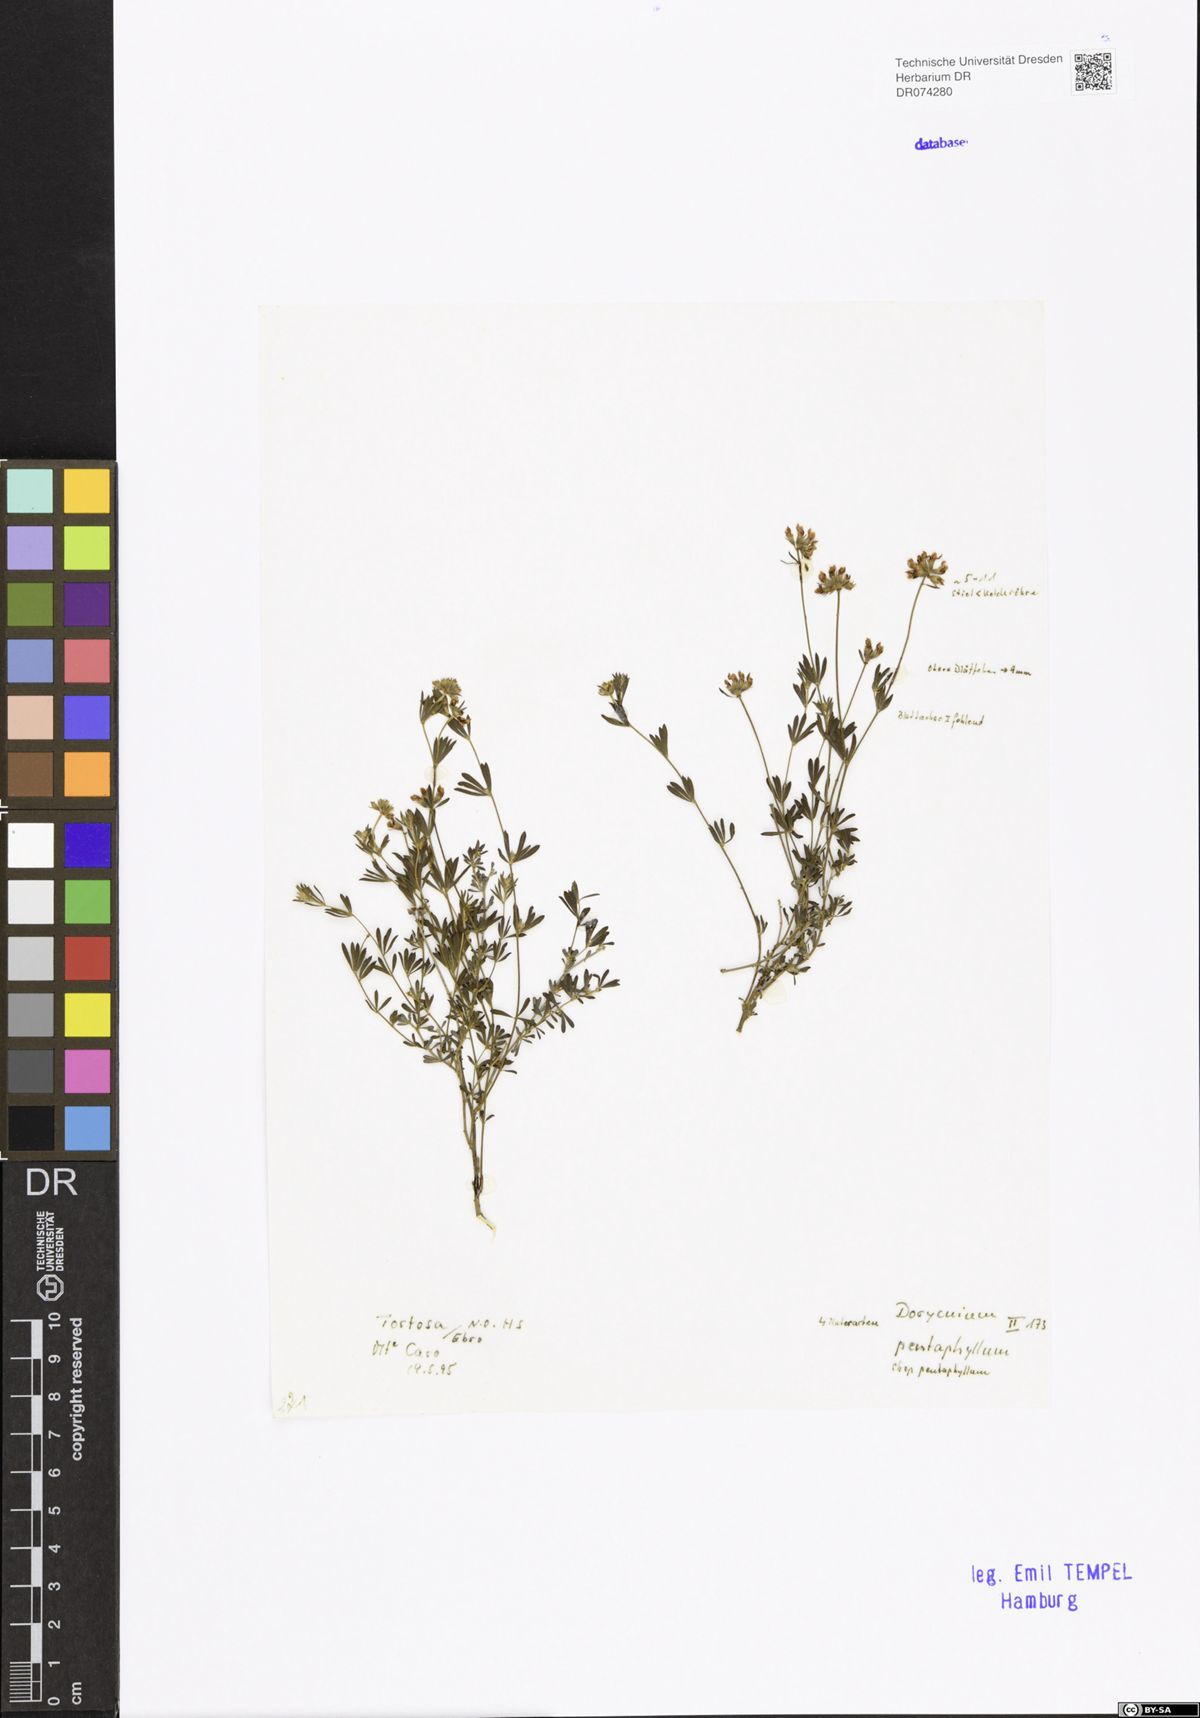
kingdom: Plantae
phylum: Tracheophyta
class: Magnoliopsida
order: Fabales
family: Fabaceae
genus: Lotus
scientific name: Lotus dorycnium
